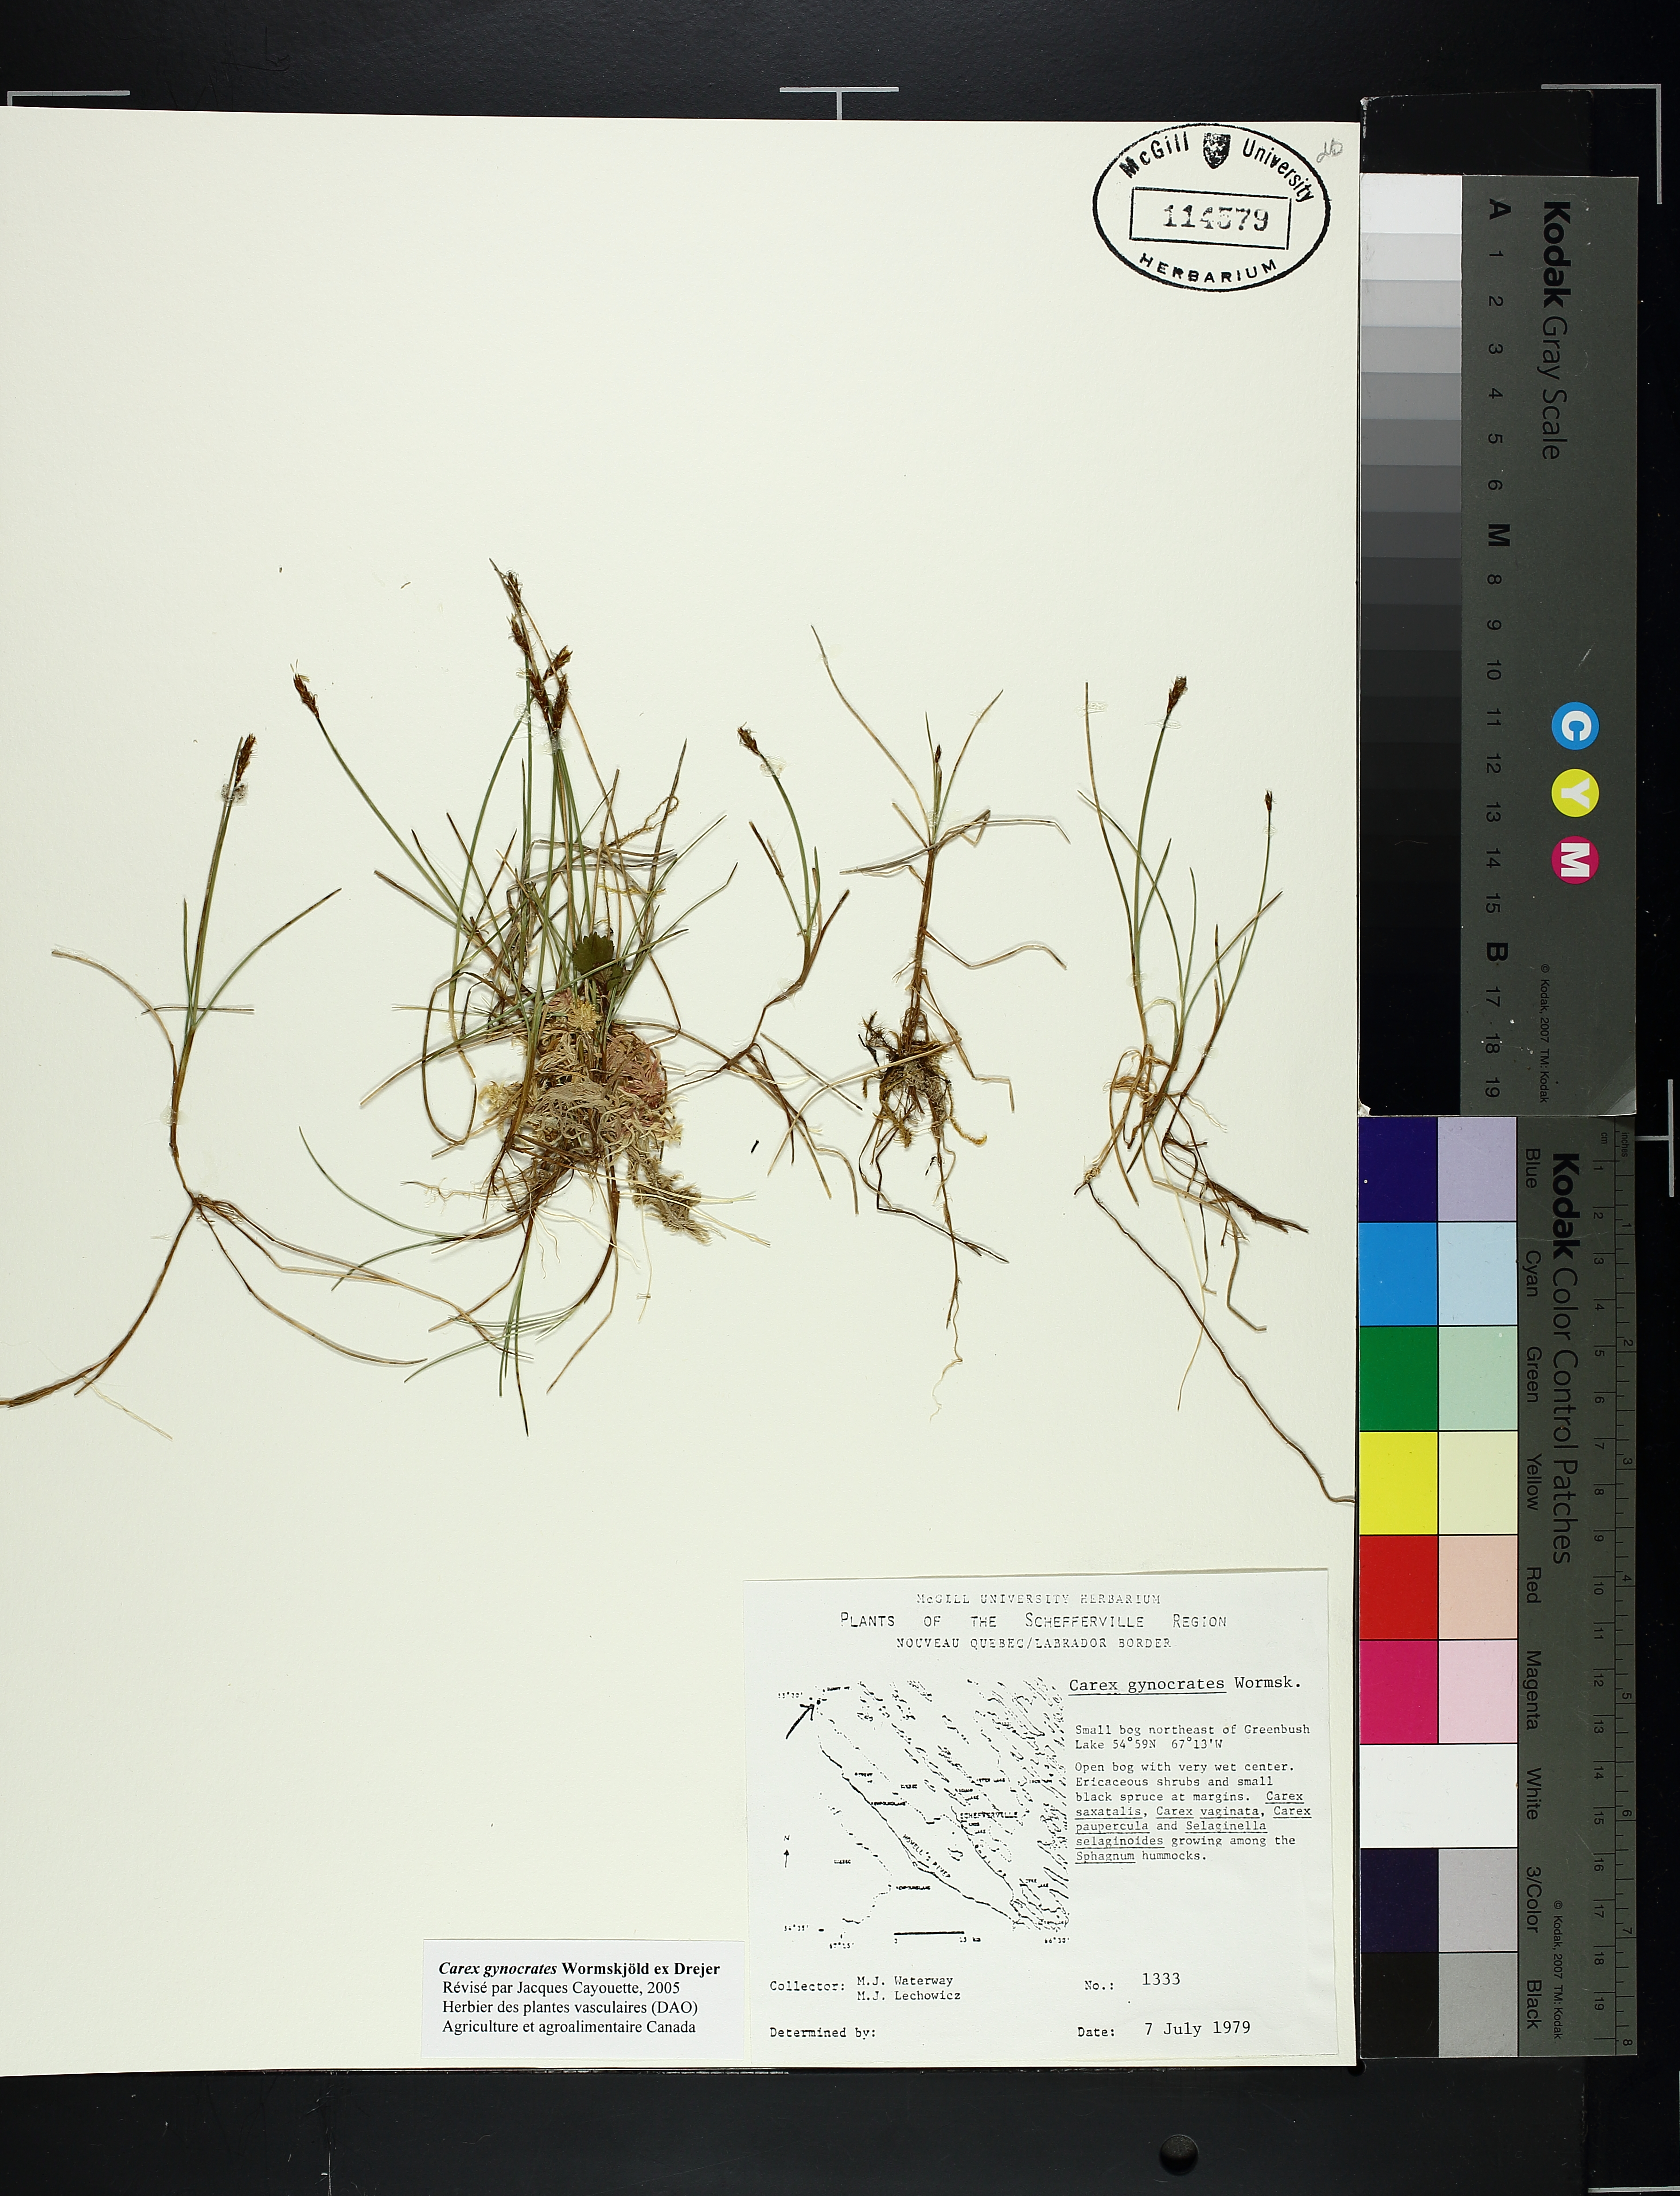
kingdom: Plantae
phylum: Tracheophyta
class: Liliopsida
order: Poales
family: Cyperaceae
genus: Carex
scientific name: Carex gynocrates
